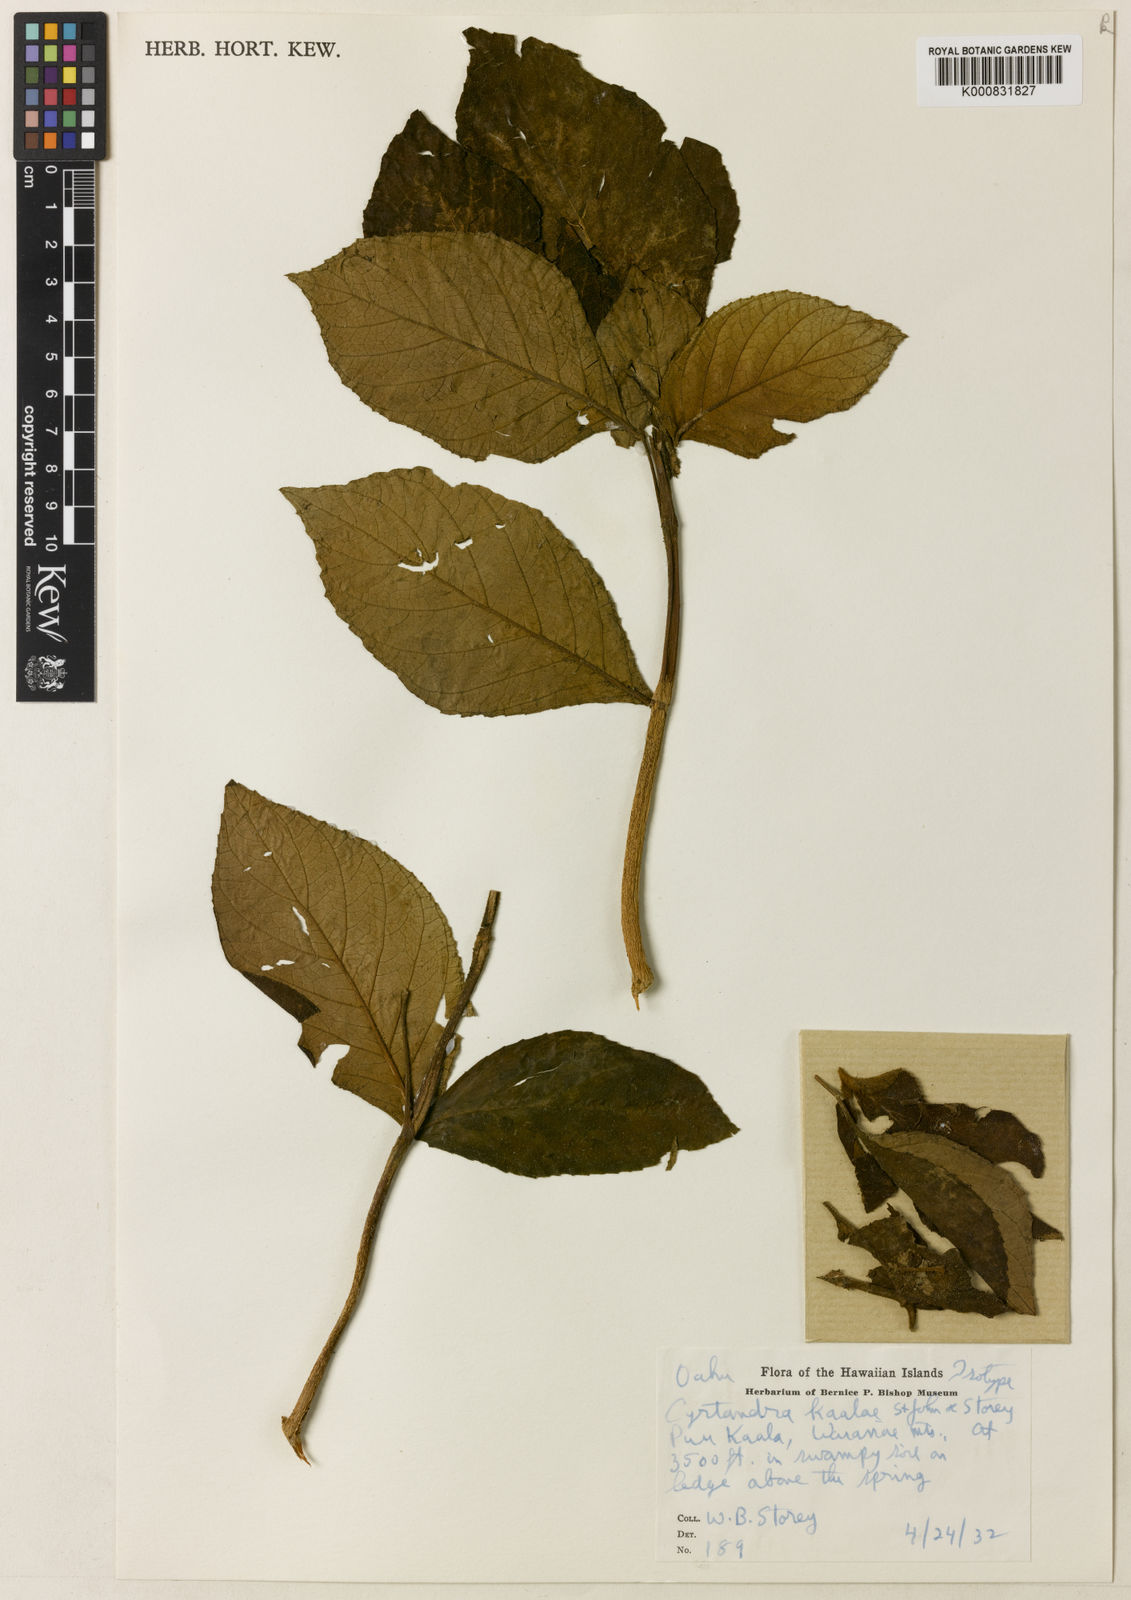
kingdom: Plantae
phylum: Tracheophyta
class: Magnoliopsida
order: Lamiales
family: Gesneriaceae
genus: Cyrtandra
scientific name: Cyrtandra kaalae
